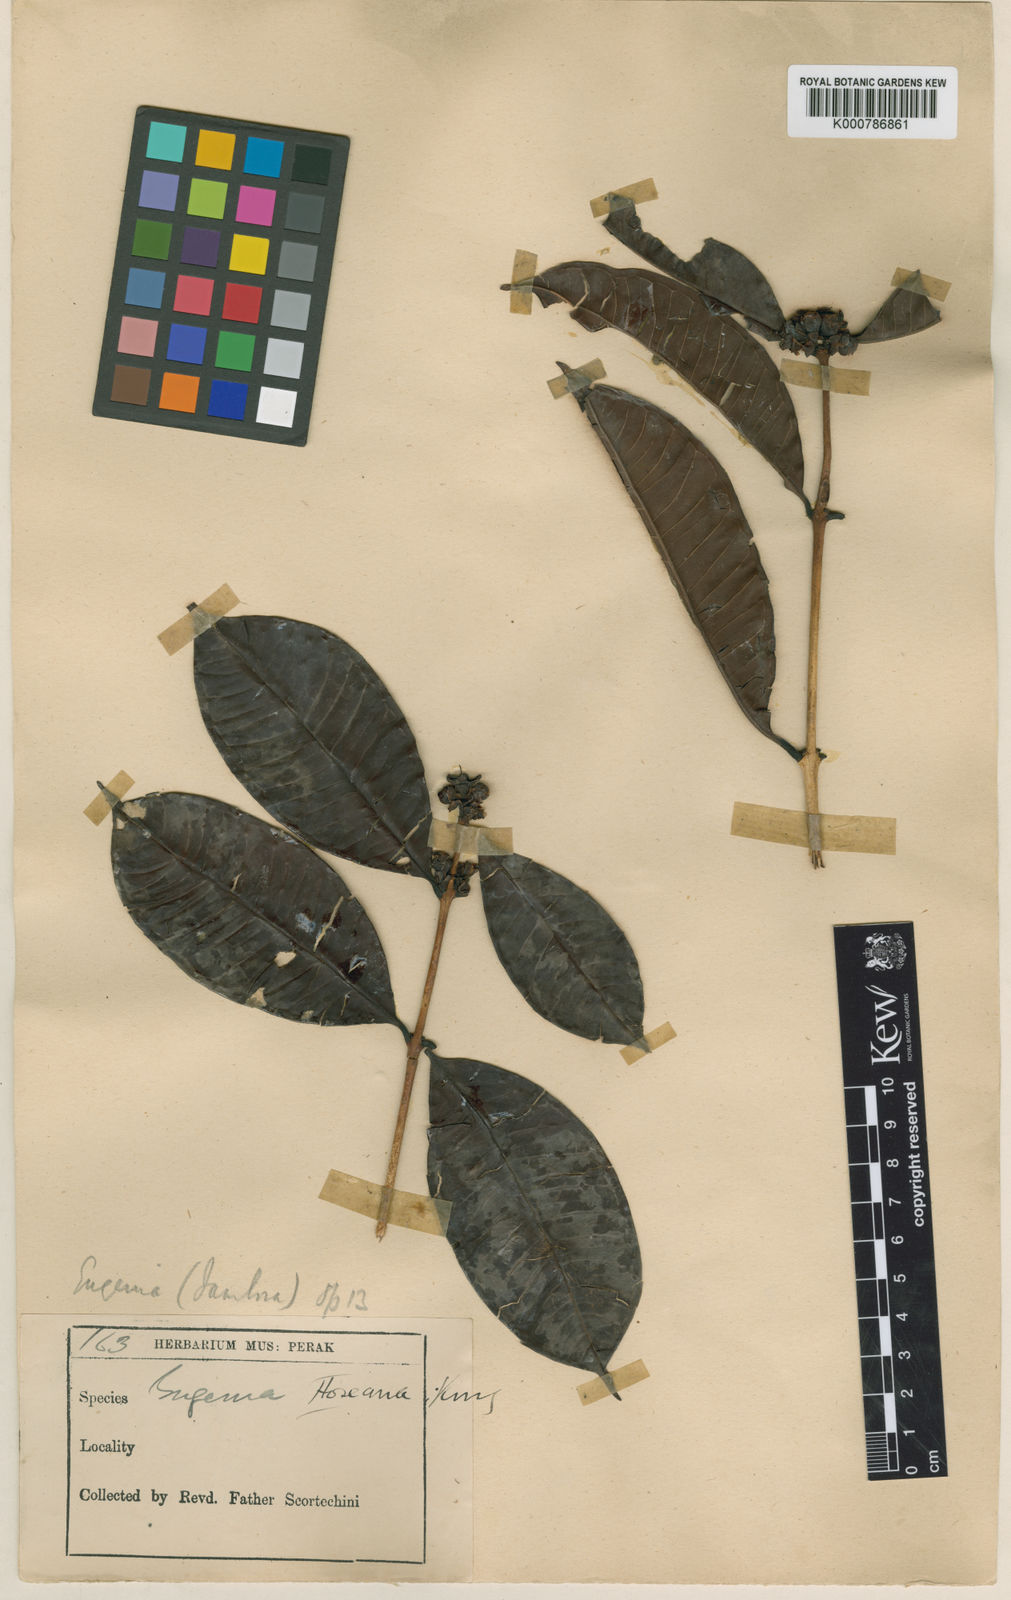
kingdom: Plantae
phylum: Tracheophyta
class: Magnoliopsida
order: Myrtales
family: Myrtaceae
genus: Syzygium
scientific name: Syzygium hoseanum
